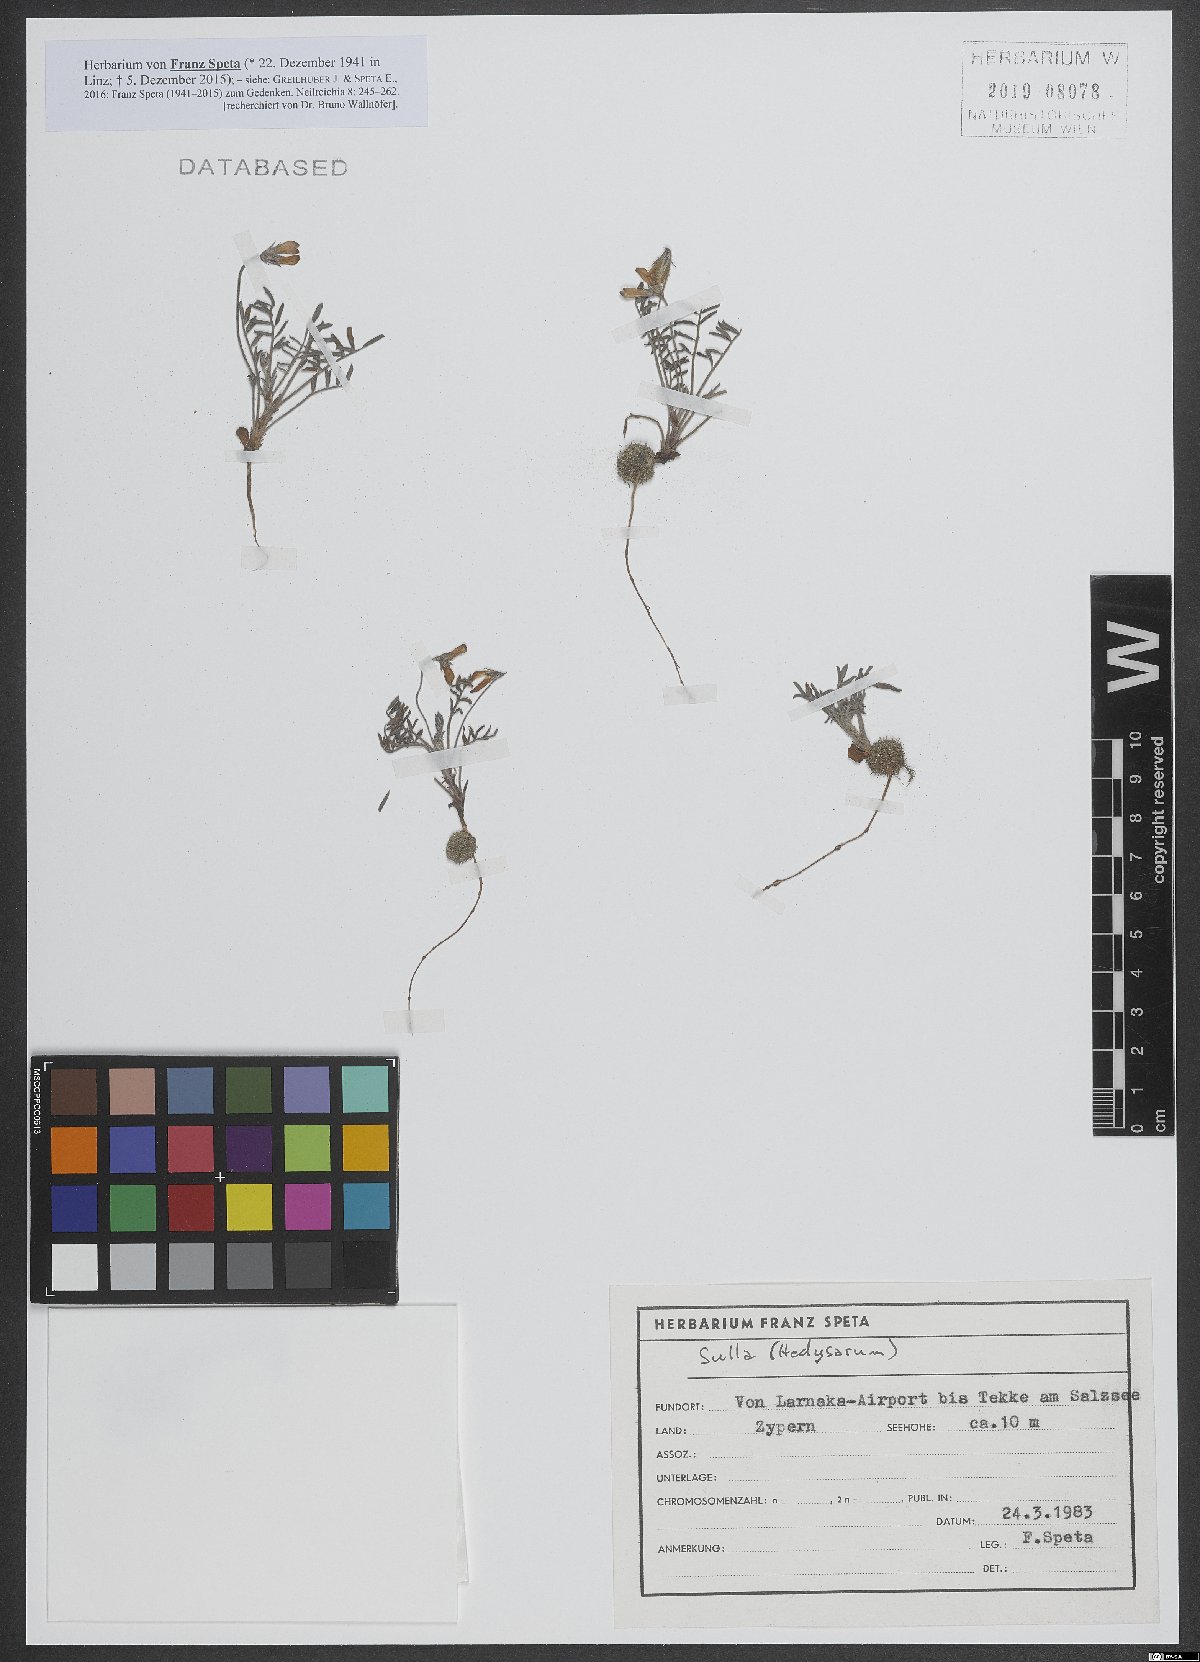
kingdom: Plantae
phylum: Tracheophyta
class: Magnoliopsida
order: Fabales
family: Fabaceae
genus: Sulla
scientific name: Sulla
